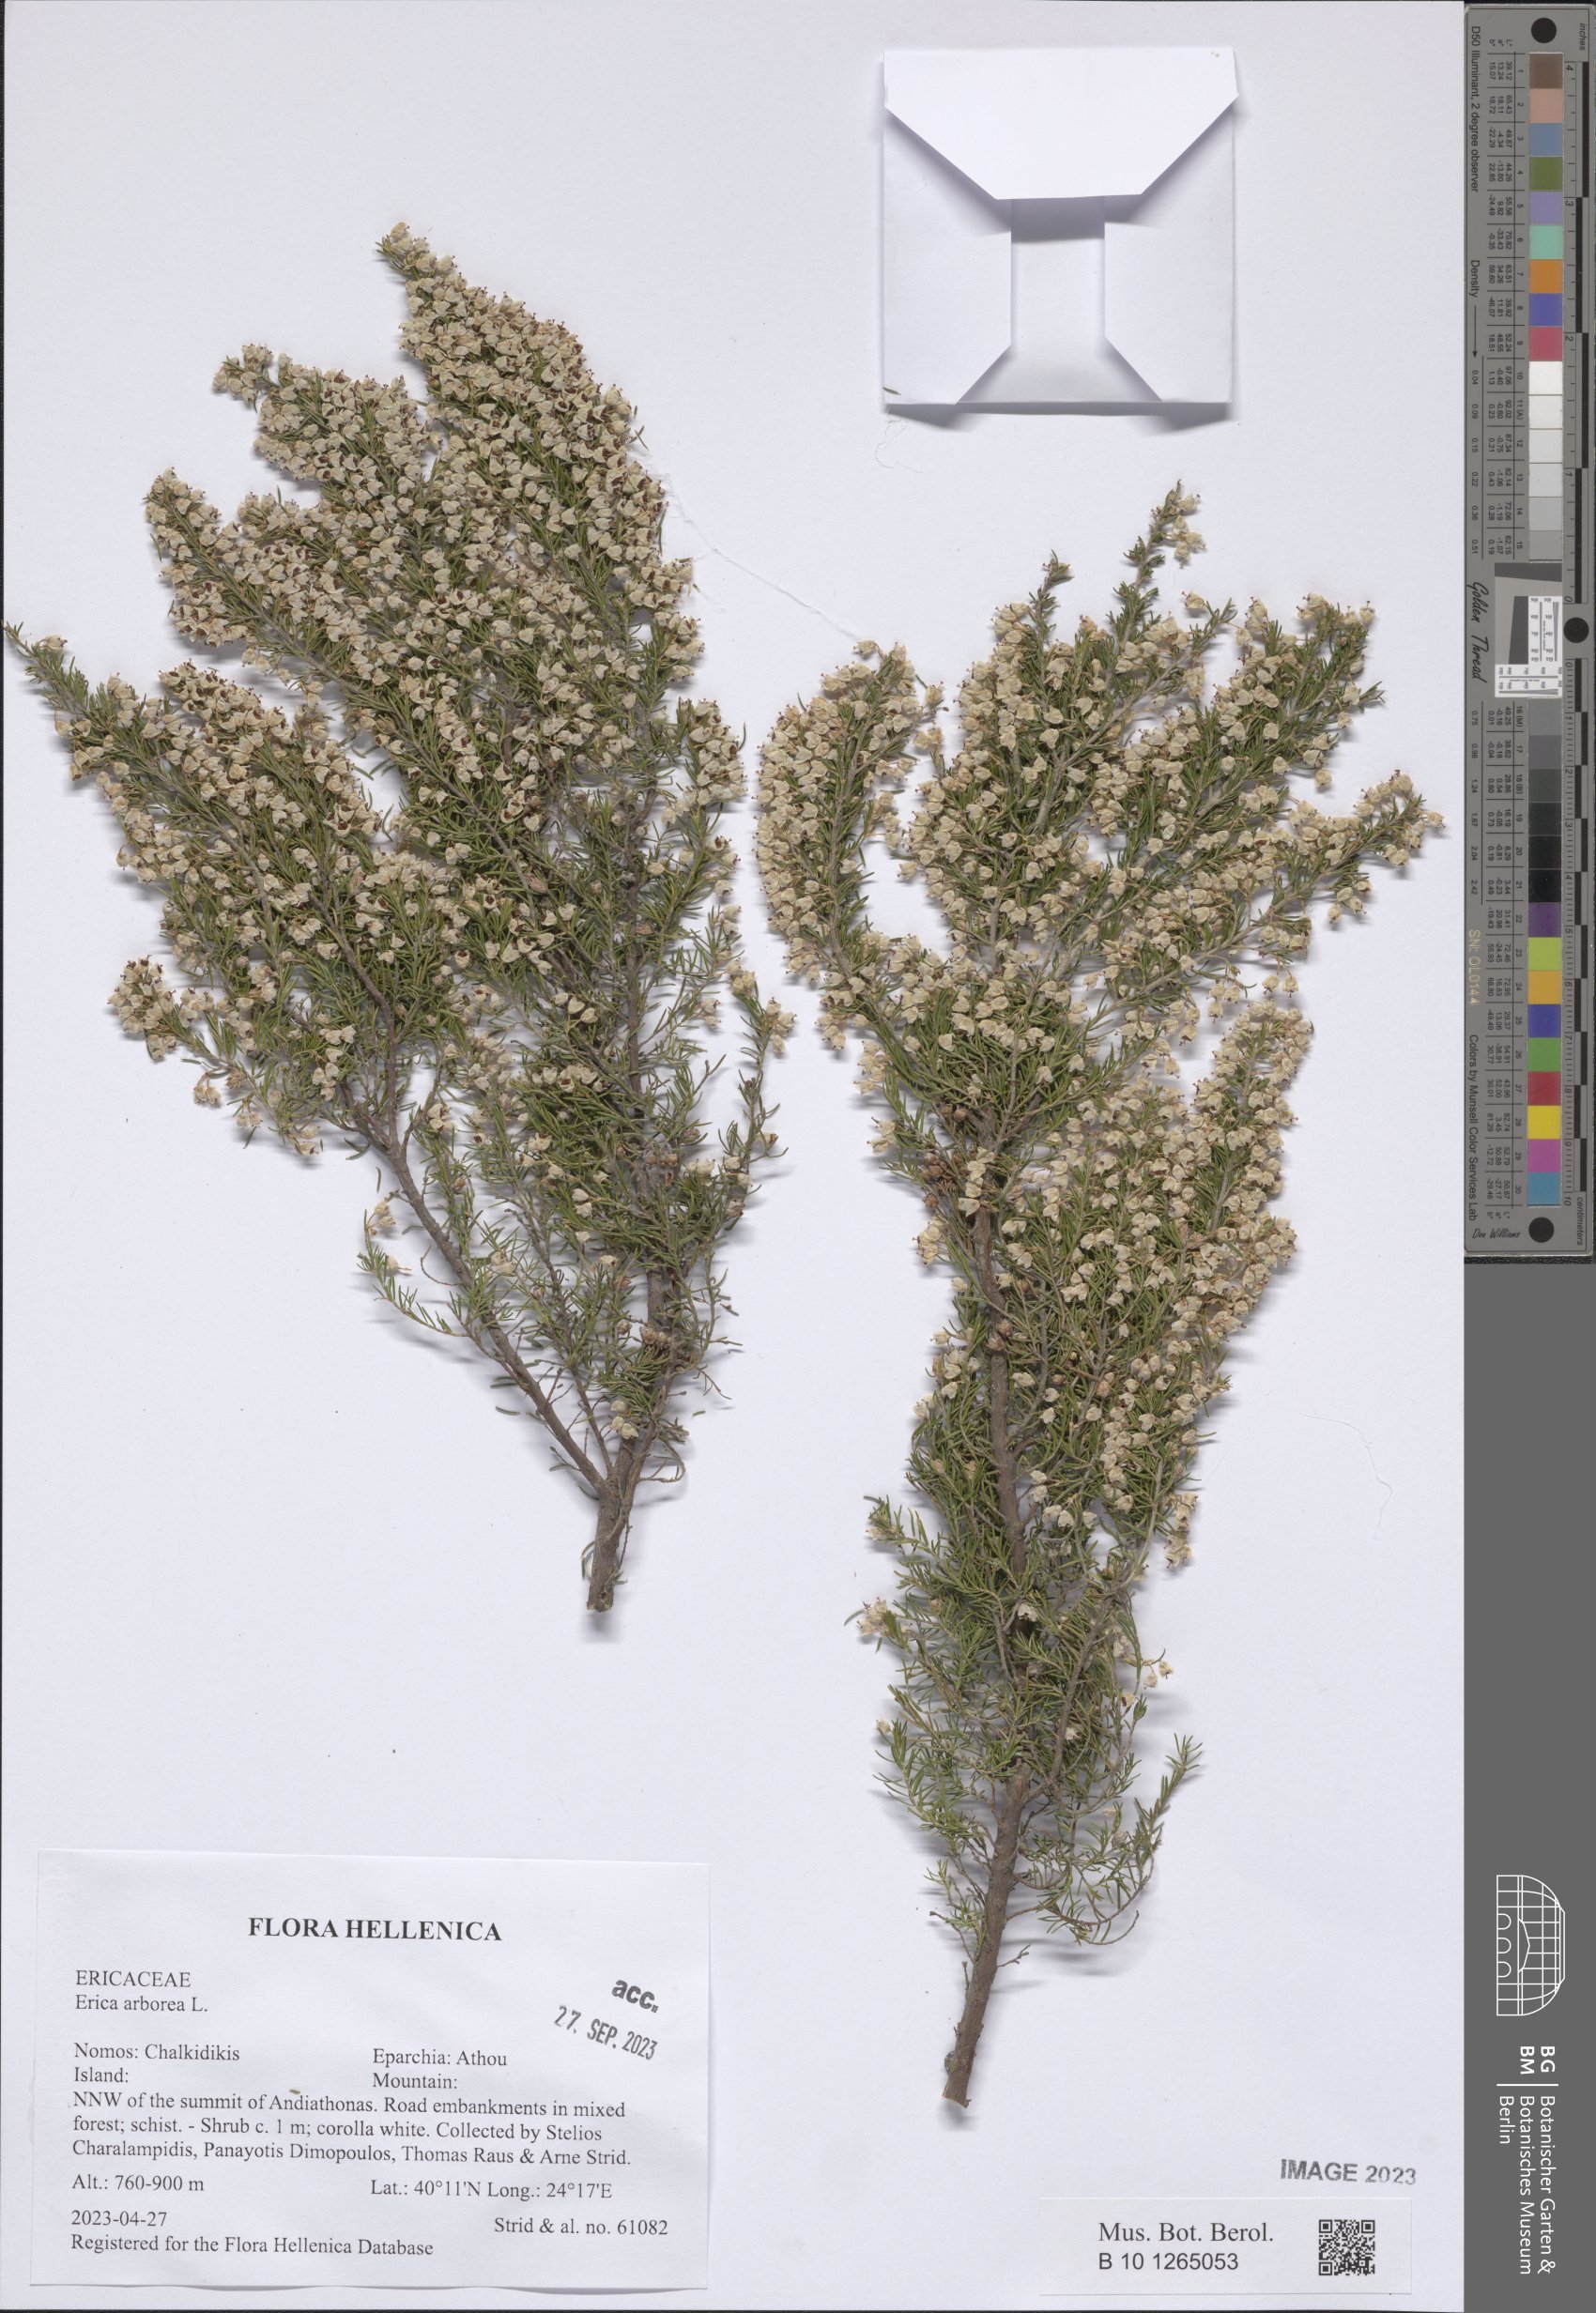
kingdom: Plantae
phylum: Tracheophyta
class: Magnoliopsida
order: Ericales
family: Ericaceae
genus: Erica
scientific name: Erica arborea
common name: Tree heath
